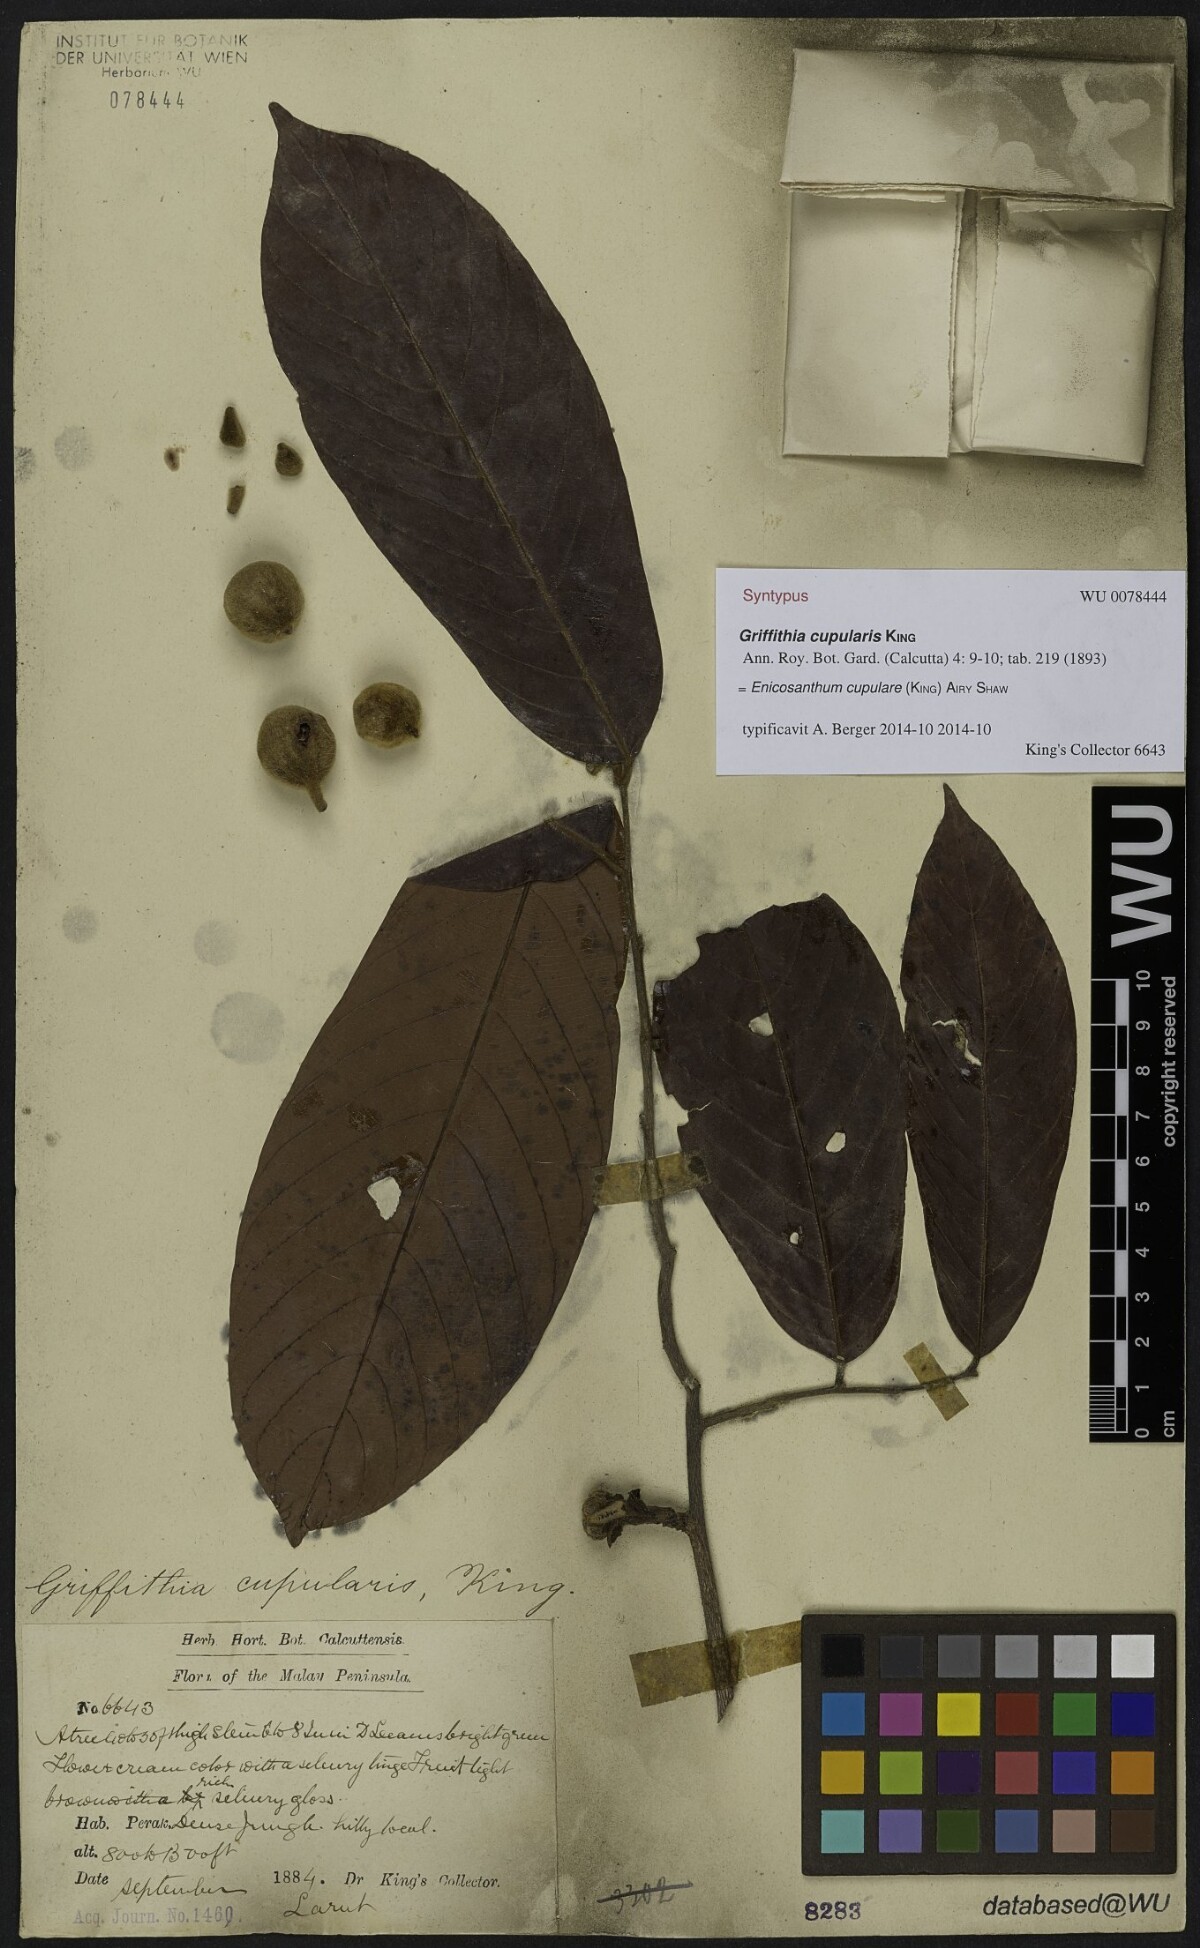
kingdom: Plantae
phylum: Tracheophyta
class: Magnoliopsida
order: Magnoliales
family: Annonaceae
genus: Enicosanthum
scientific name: Enicosanthum cupulare
